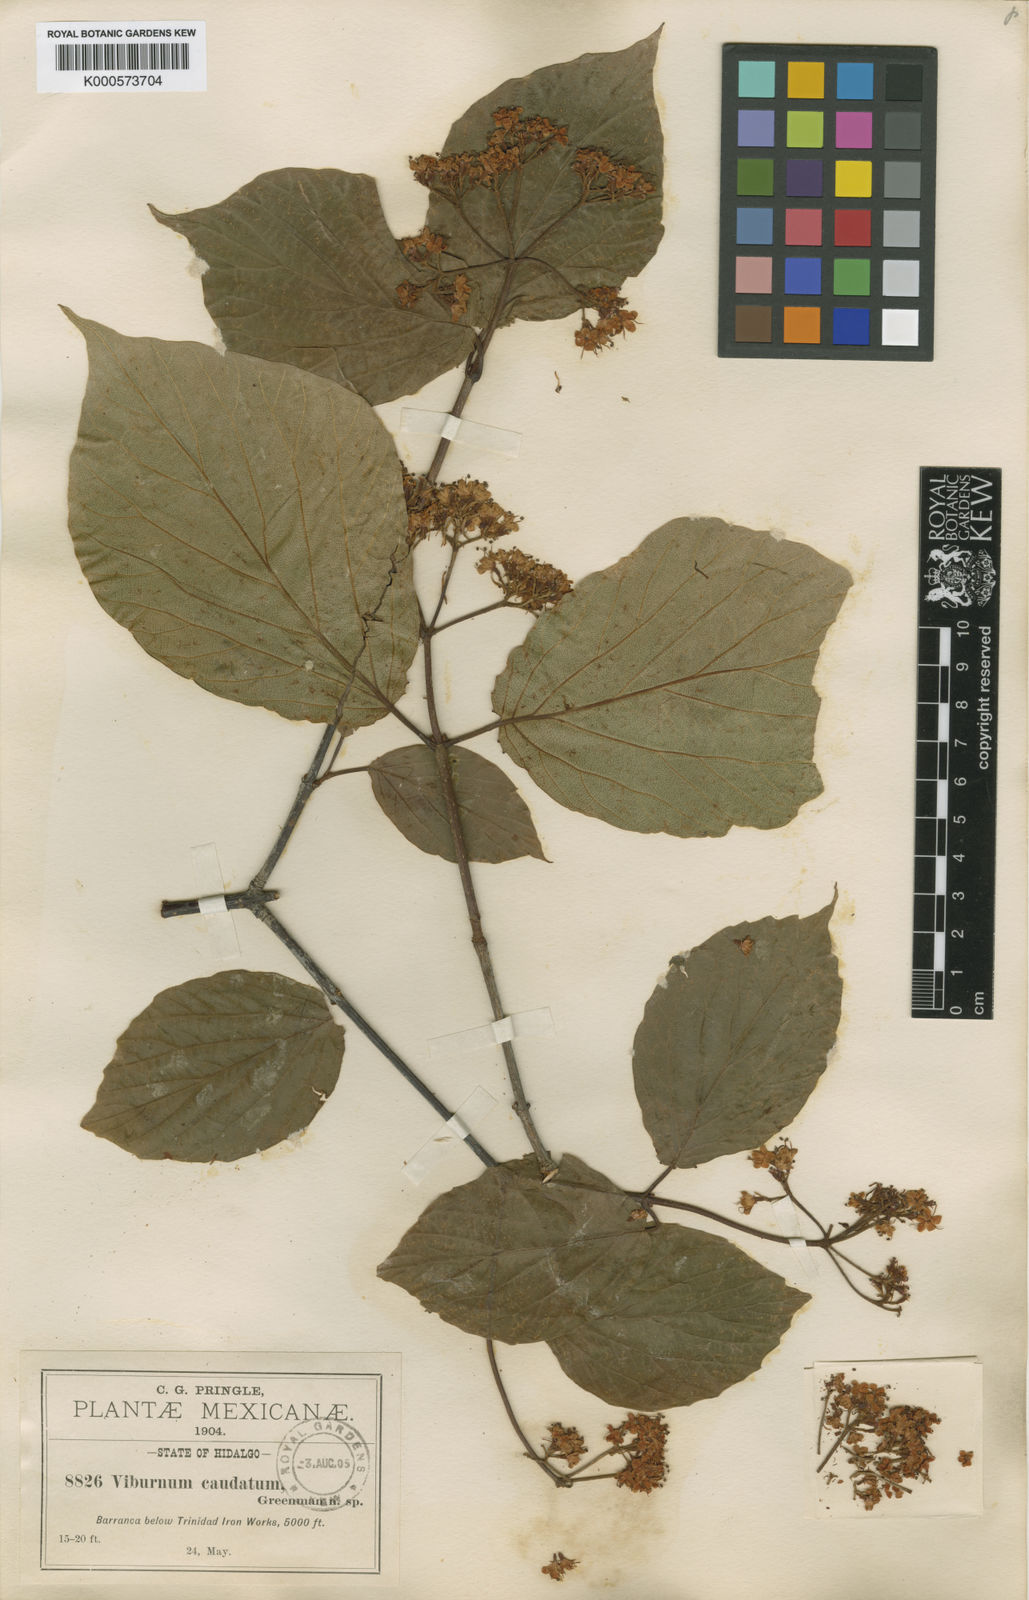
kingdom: Plantae
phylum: Tracheophyta
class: Magnoliopsida
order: Dipsacales
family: Viburnaceae
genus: Viburnum
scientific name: Viburnum caudatum
